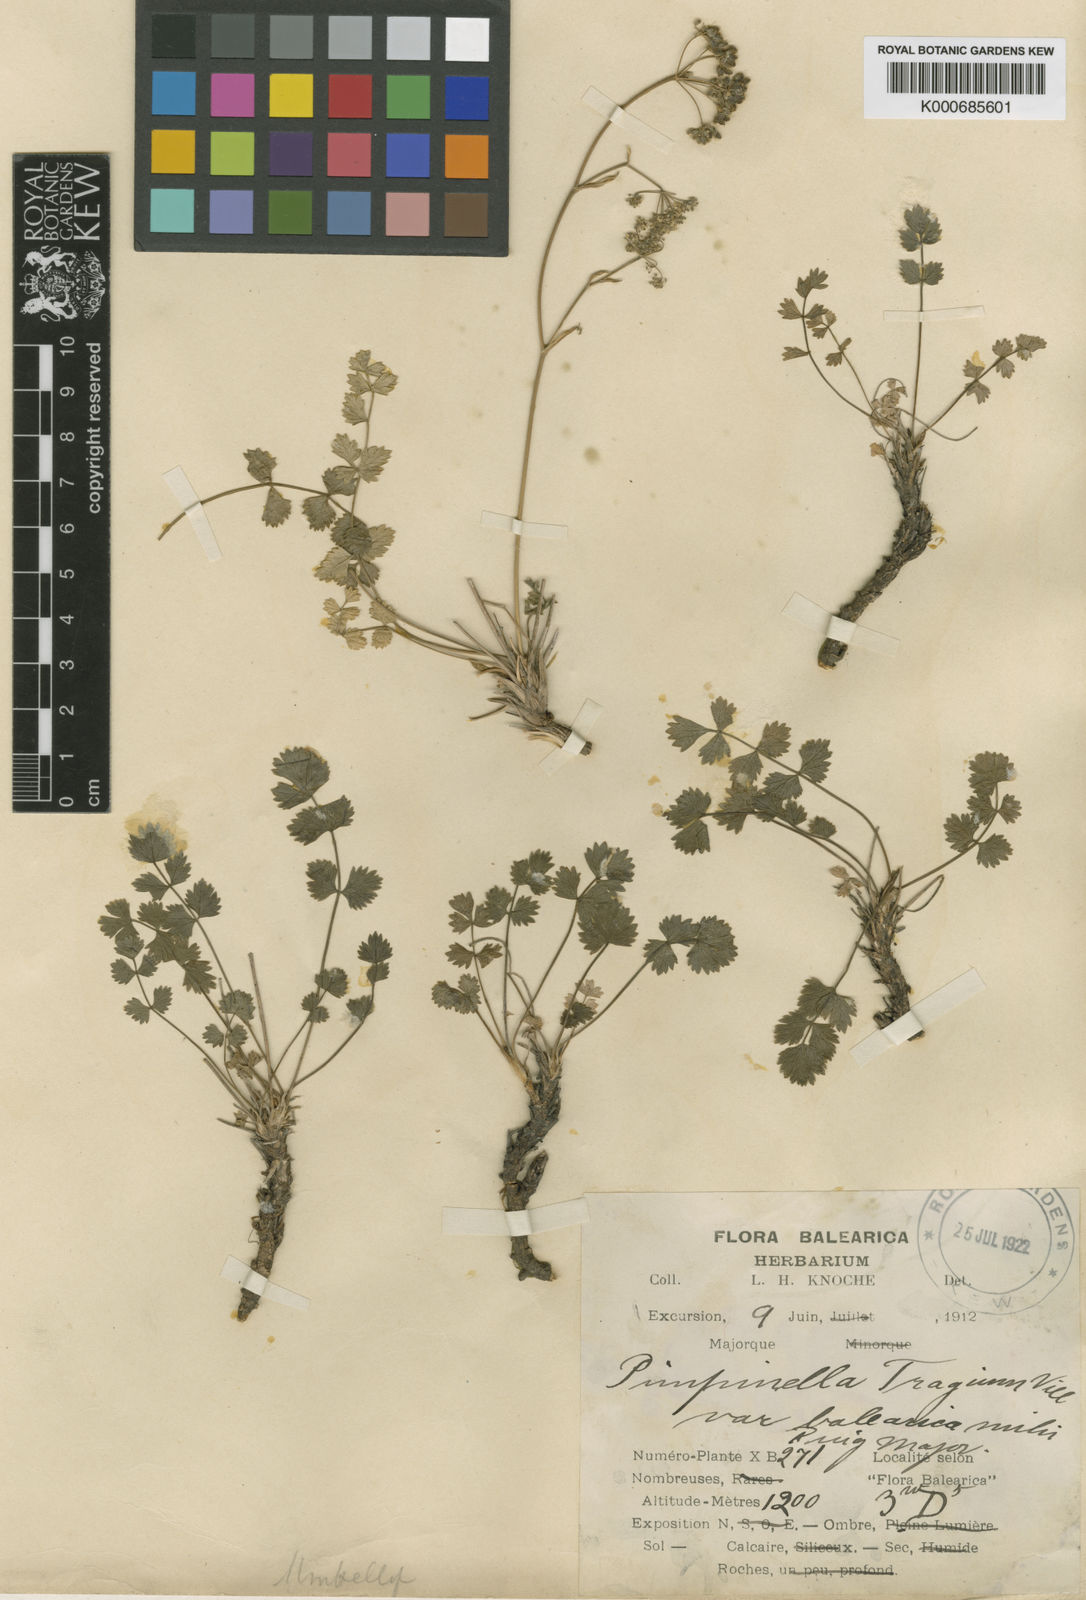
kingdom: Plantae
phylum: Tracheophyta
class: Magnoliopsida
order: Apiales
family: Apiaceae
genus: Pimpinella
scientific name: Pimpinella tragium
